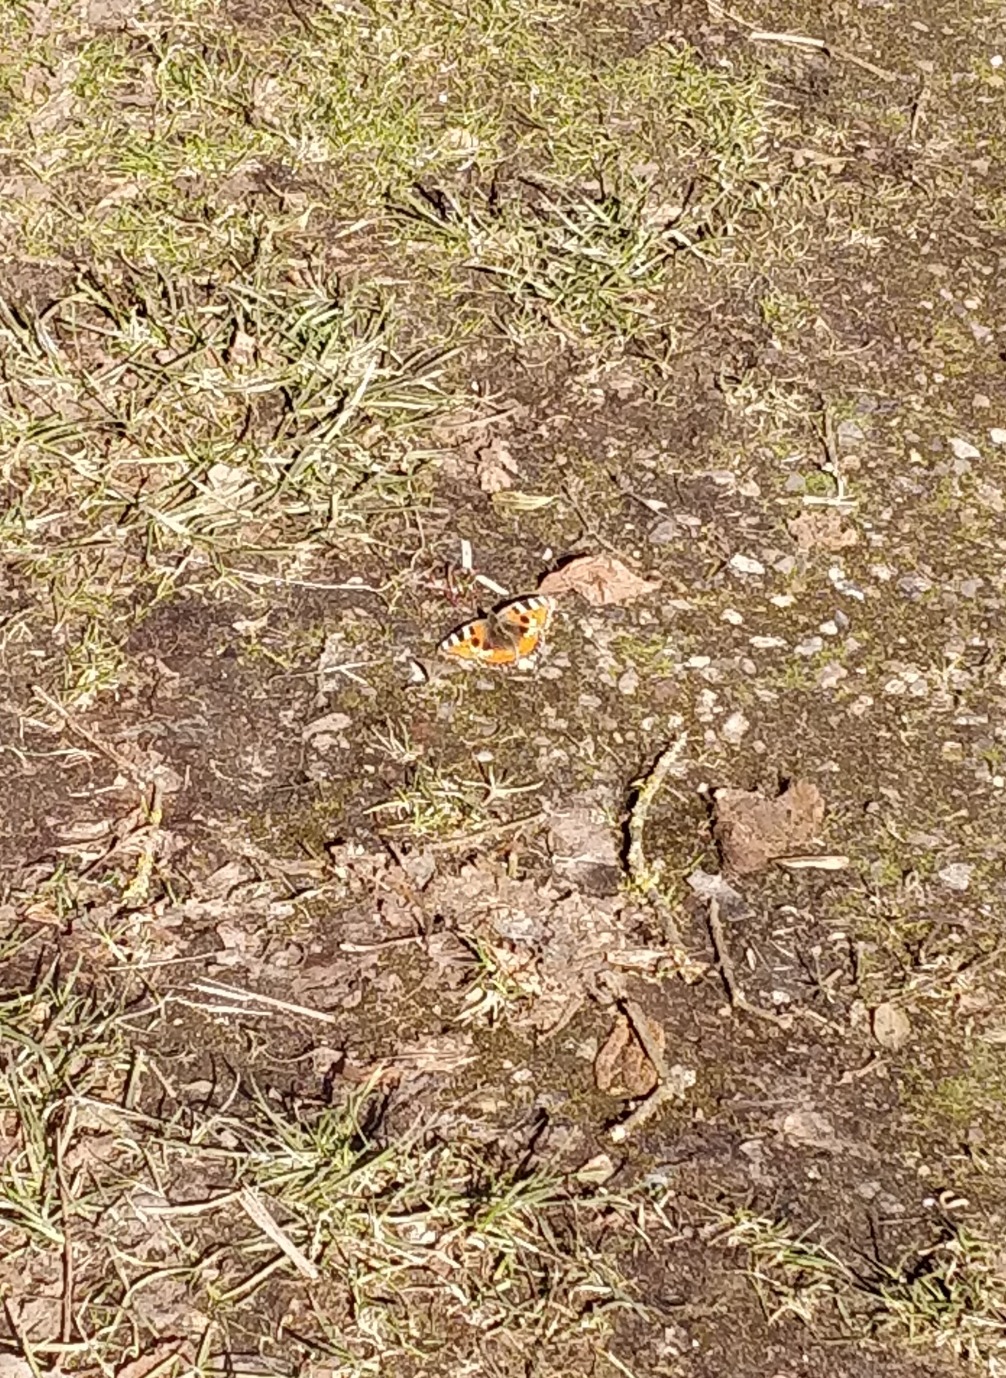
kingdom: Animalia
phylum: Arthropoda
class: Insecta
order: Lepidoptera
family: Nymphalidae
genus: Aglais
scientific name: Aglais urticae
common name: Nældens takvinge
